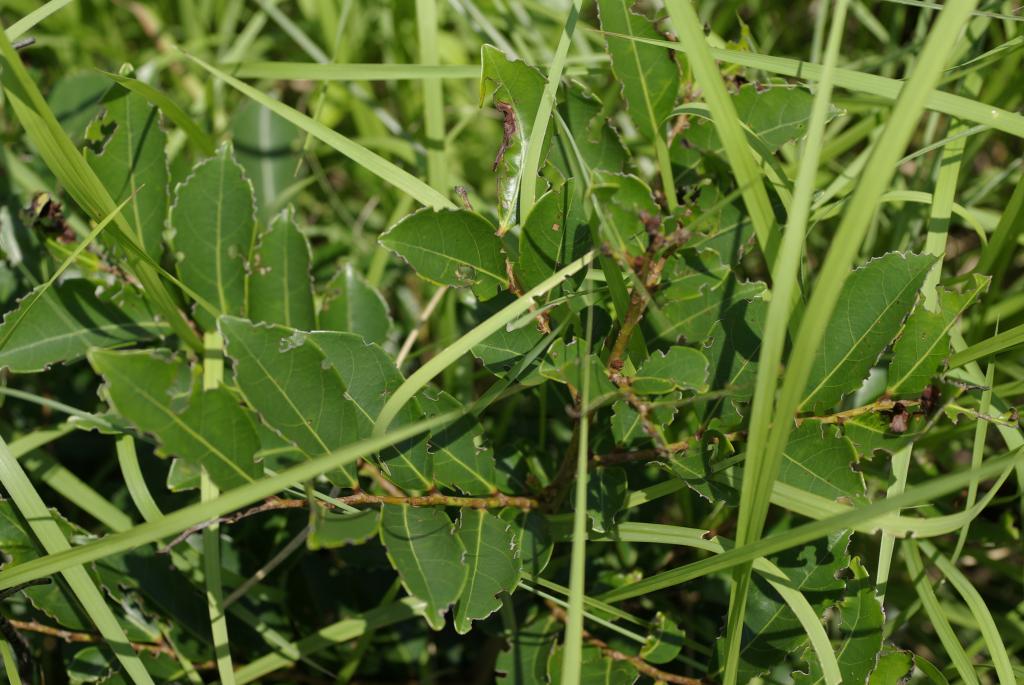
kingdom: Plantae
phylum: Tracheophyta
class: Magnoliopsida
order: Malpighiales
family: Phyllanthaceae
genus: Glochidion
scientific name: Glochidion rubrum
